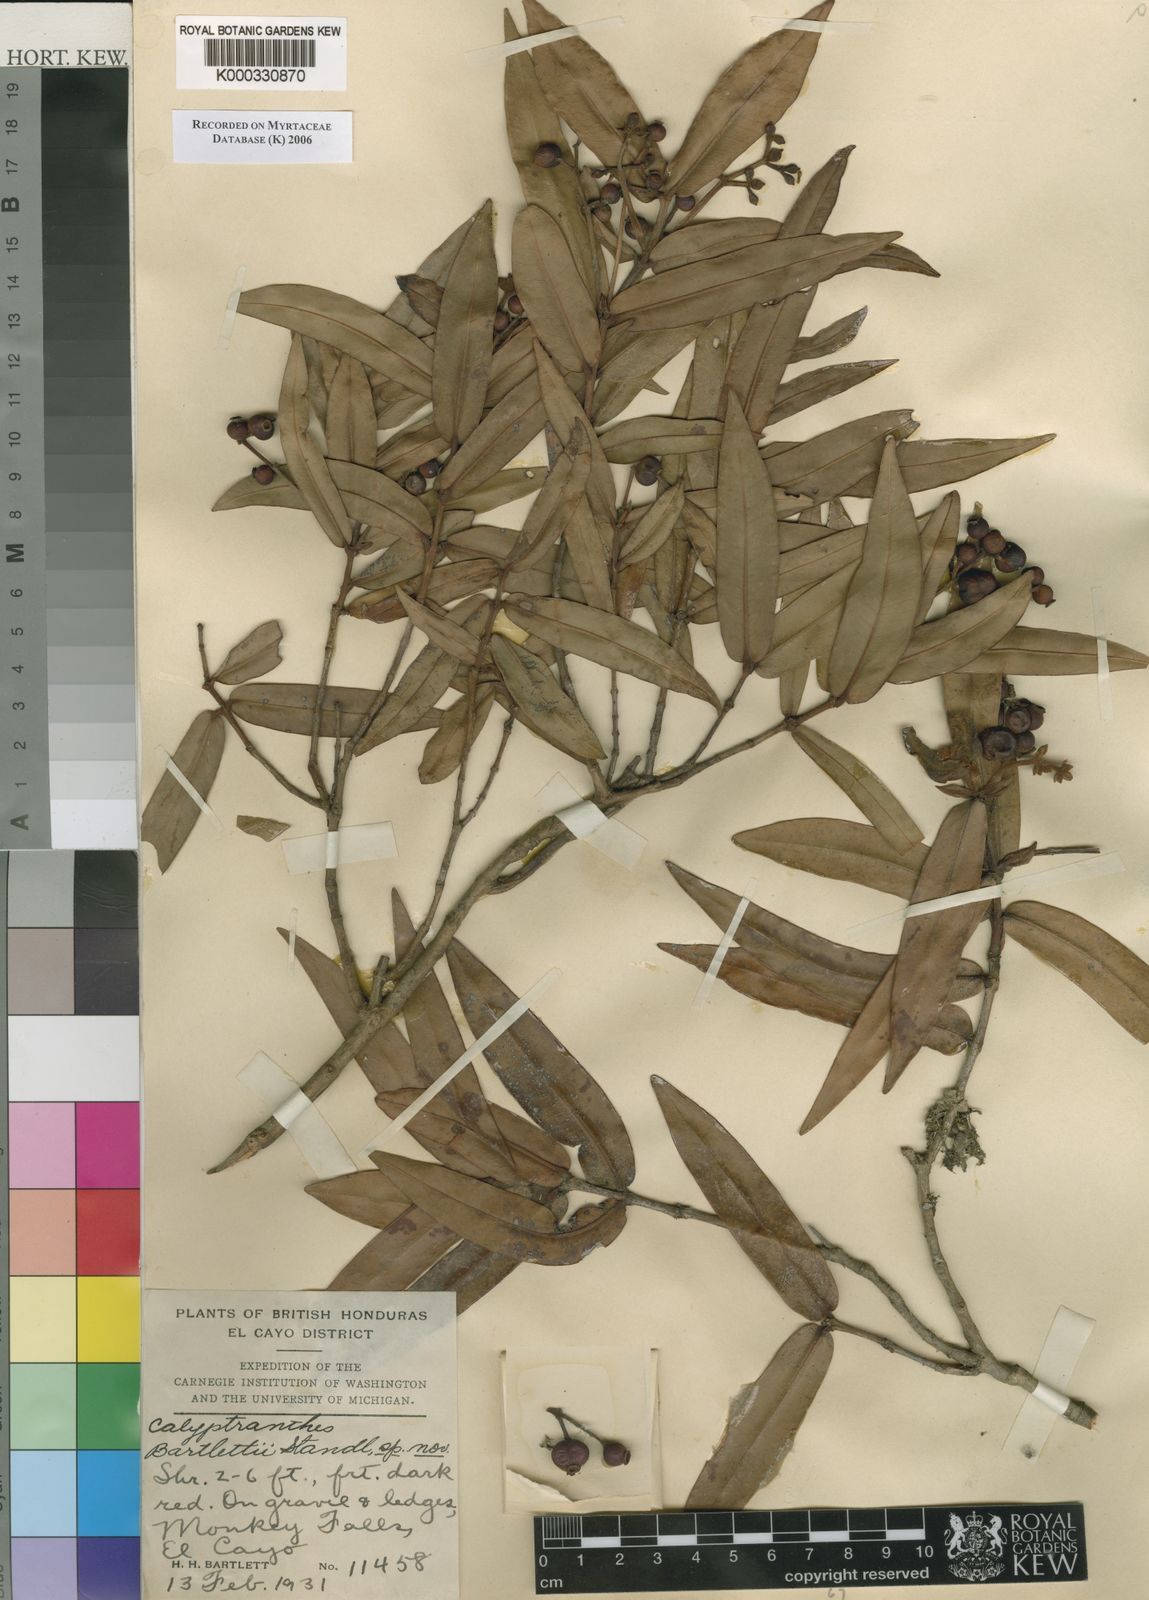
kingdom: Plantae
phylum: Tracheophyta
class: Magnoliopsida
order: Myrtales
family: Myrtaceae
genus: Myrcia
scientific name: Myrcia bartlettii
